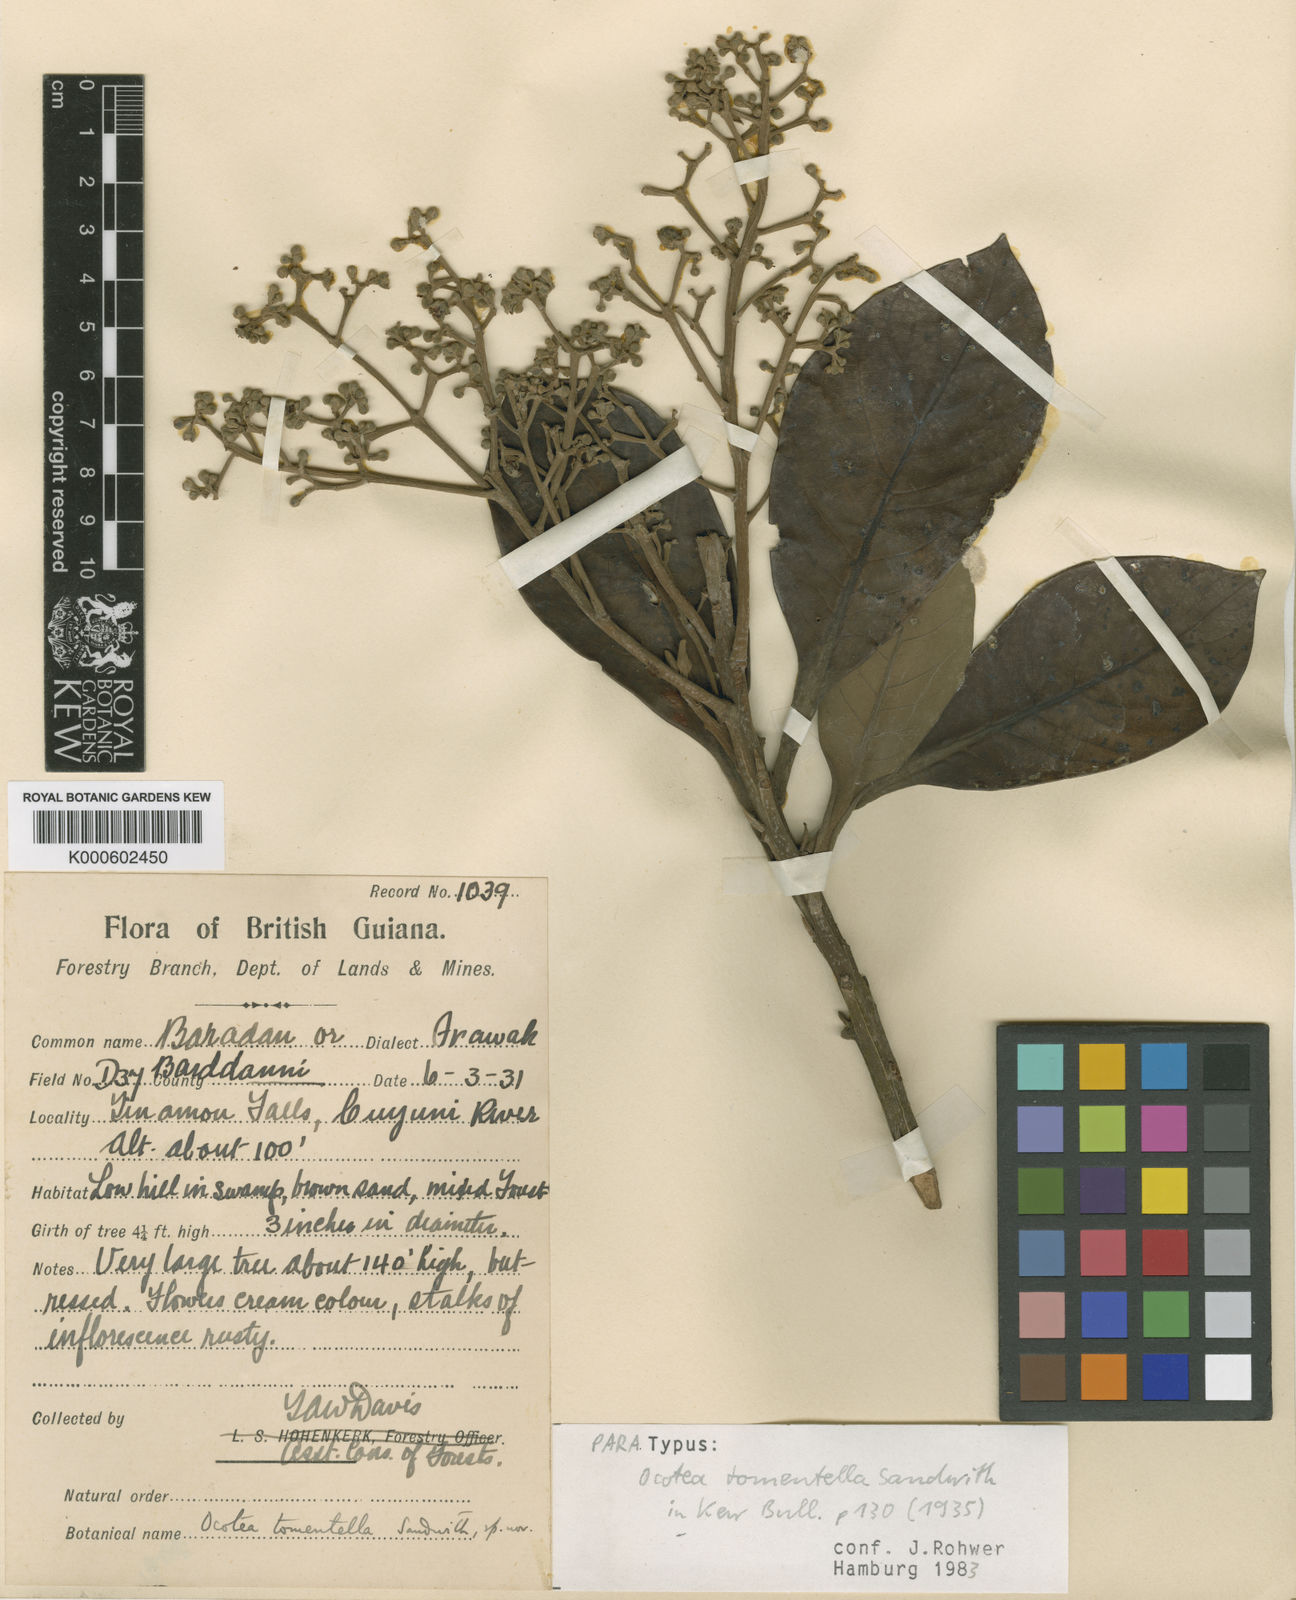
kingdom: Plantae
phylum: Tracheophyta
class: Magnoliopsida
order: Laurales
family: Lauraceae
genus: Ocotea
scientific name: Ocotea tomentella
